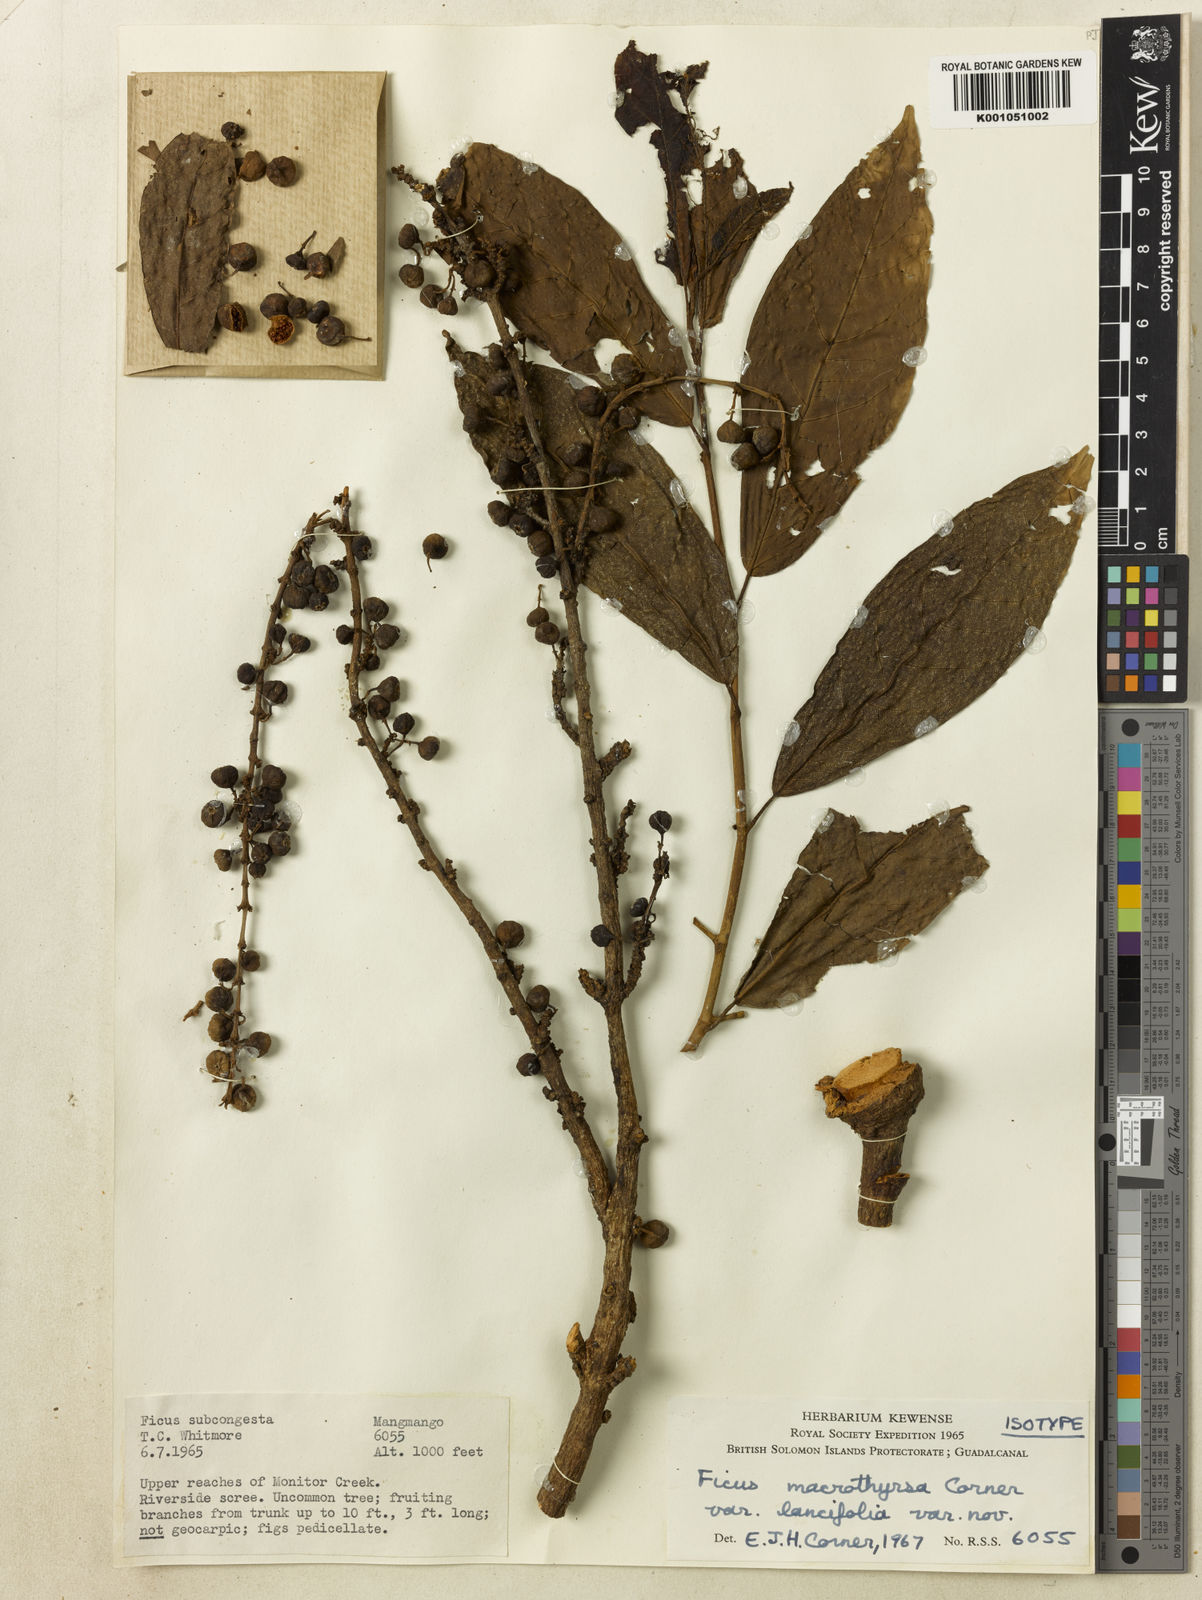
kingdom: Plantae
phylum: Tracheophyta
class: Magnoliopsida
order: Rosales
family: Moraceae
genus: Ficus
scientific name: Ficus macrothyrsa
